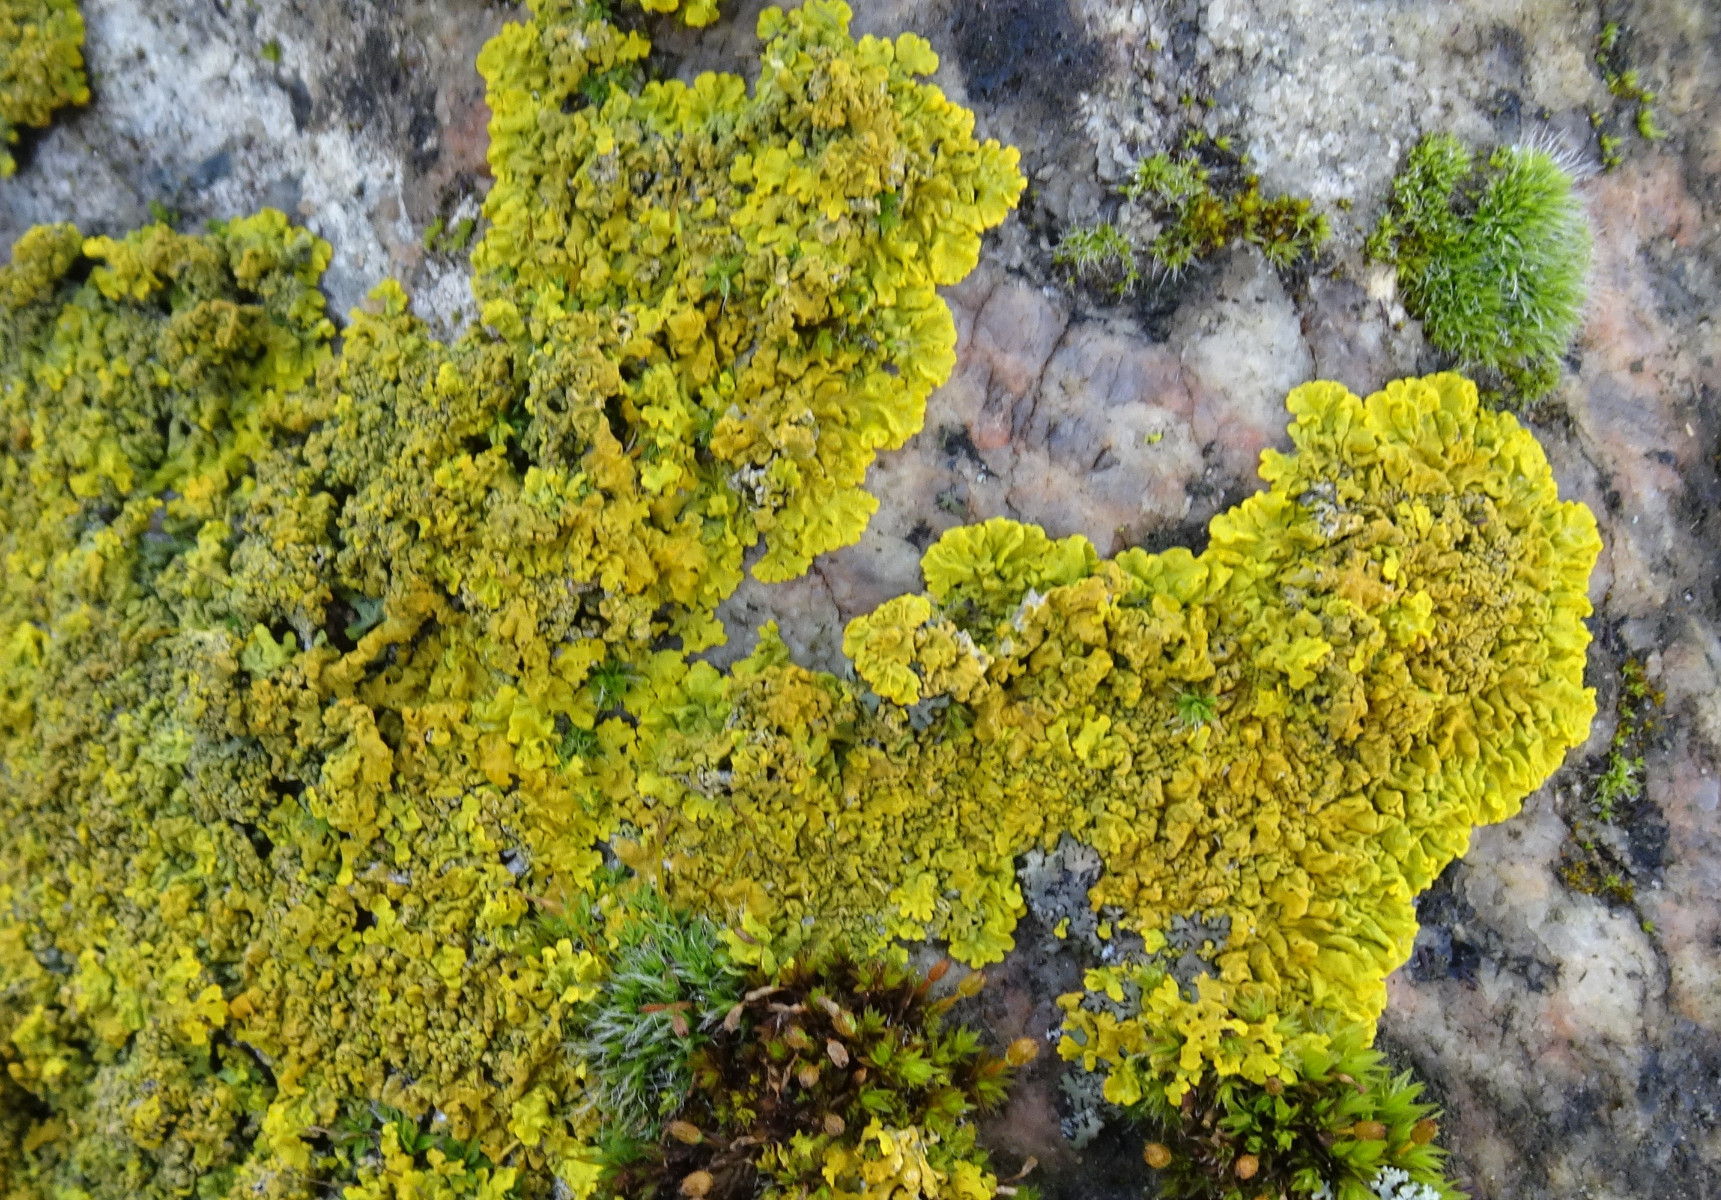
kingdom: Fungi
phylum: Ascomycota
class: Lecanoromycetes
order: Teloschistales
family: Teloschistaceae
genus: Xanthoria
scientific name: Xanthoria parietina
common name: almindelig væggelav
